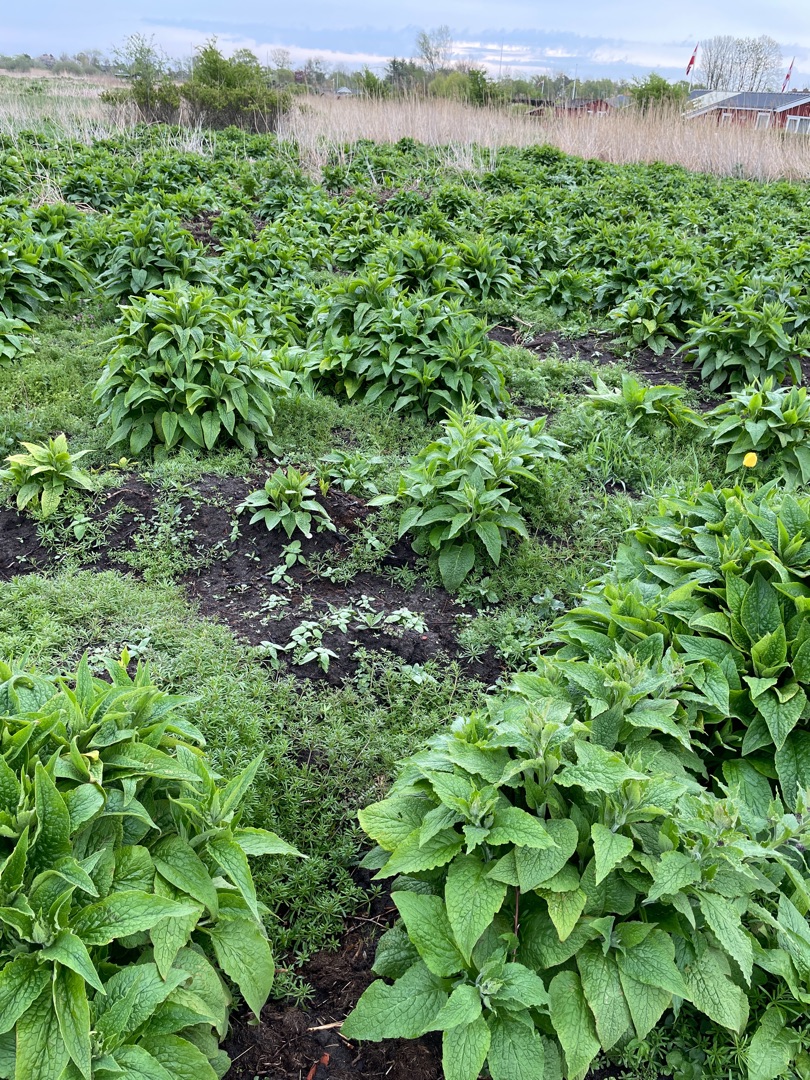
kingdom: Plantae
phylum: Tracheophyta
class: Magnoliopsida
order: Boraginales
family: Boraginaceae
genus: Symphytum
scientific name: Symphytum
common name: Kulsukkerslægten
